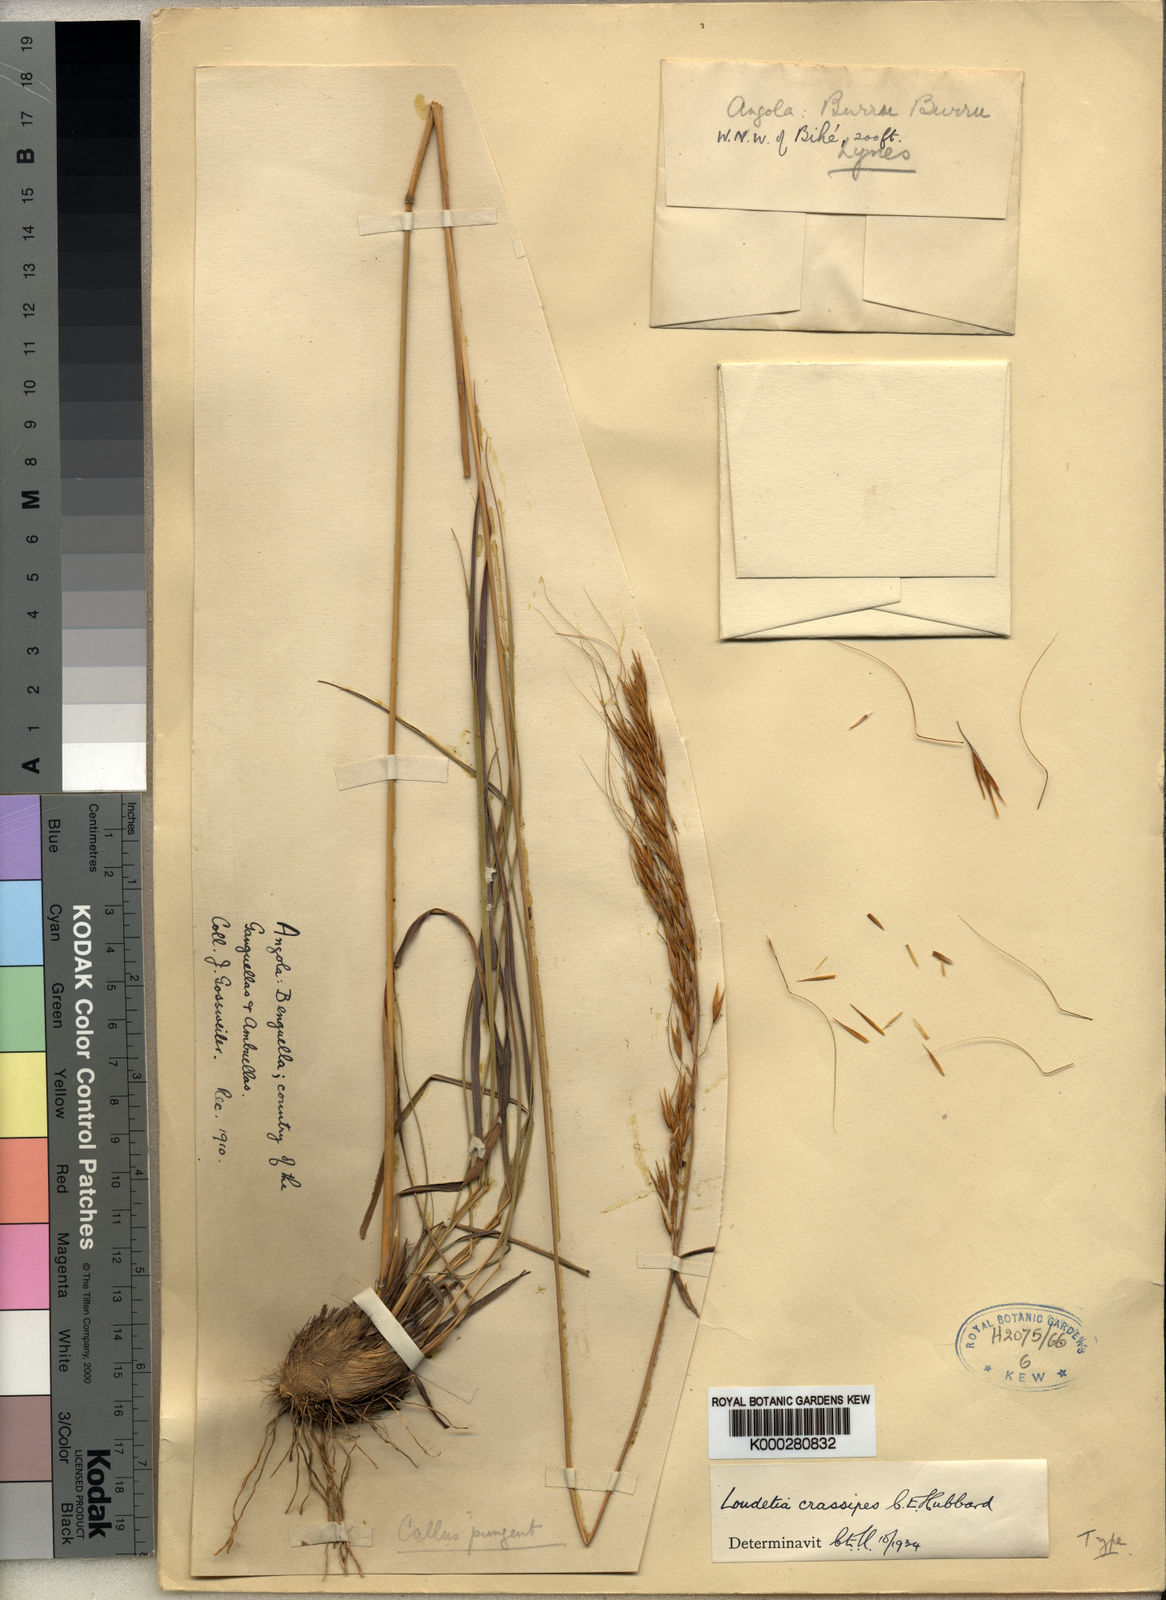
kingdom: Plantae
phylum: Tracheophyta
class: Liliopsida
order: Poales
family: Poaceae
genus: Loudetia
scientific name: Loudetia lanata
